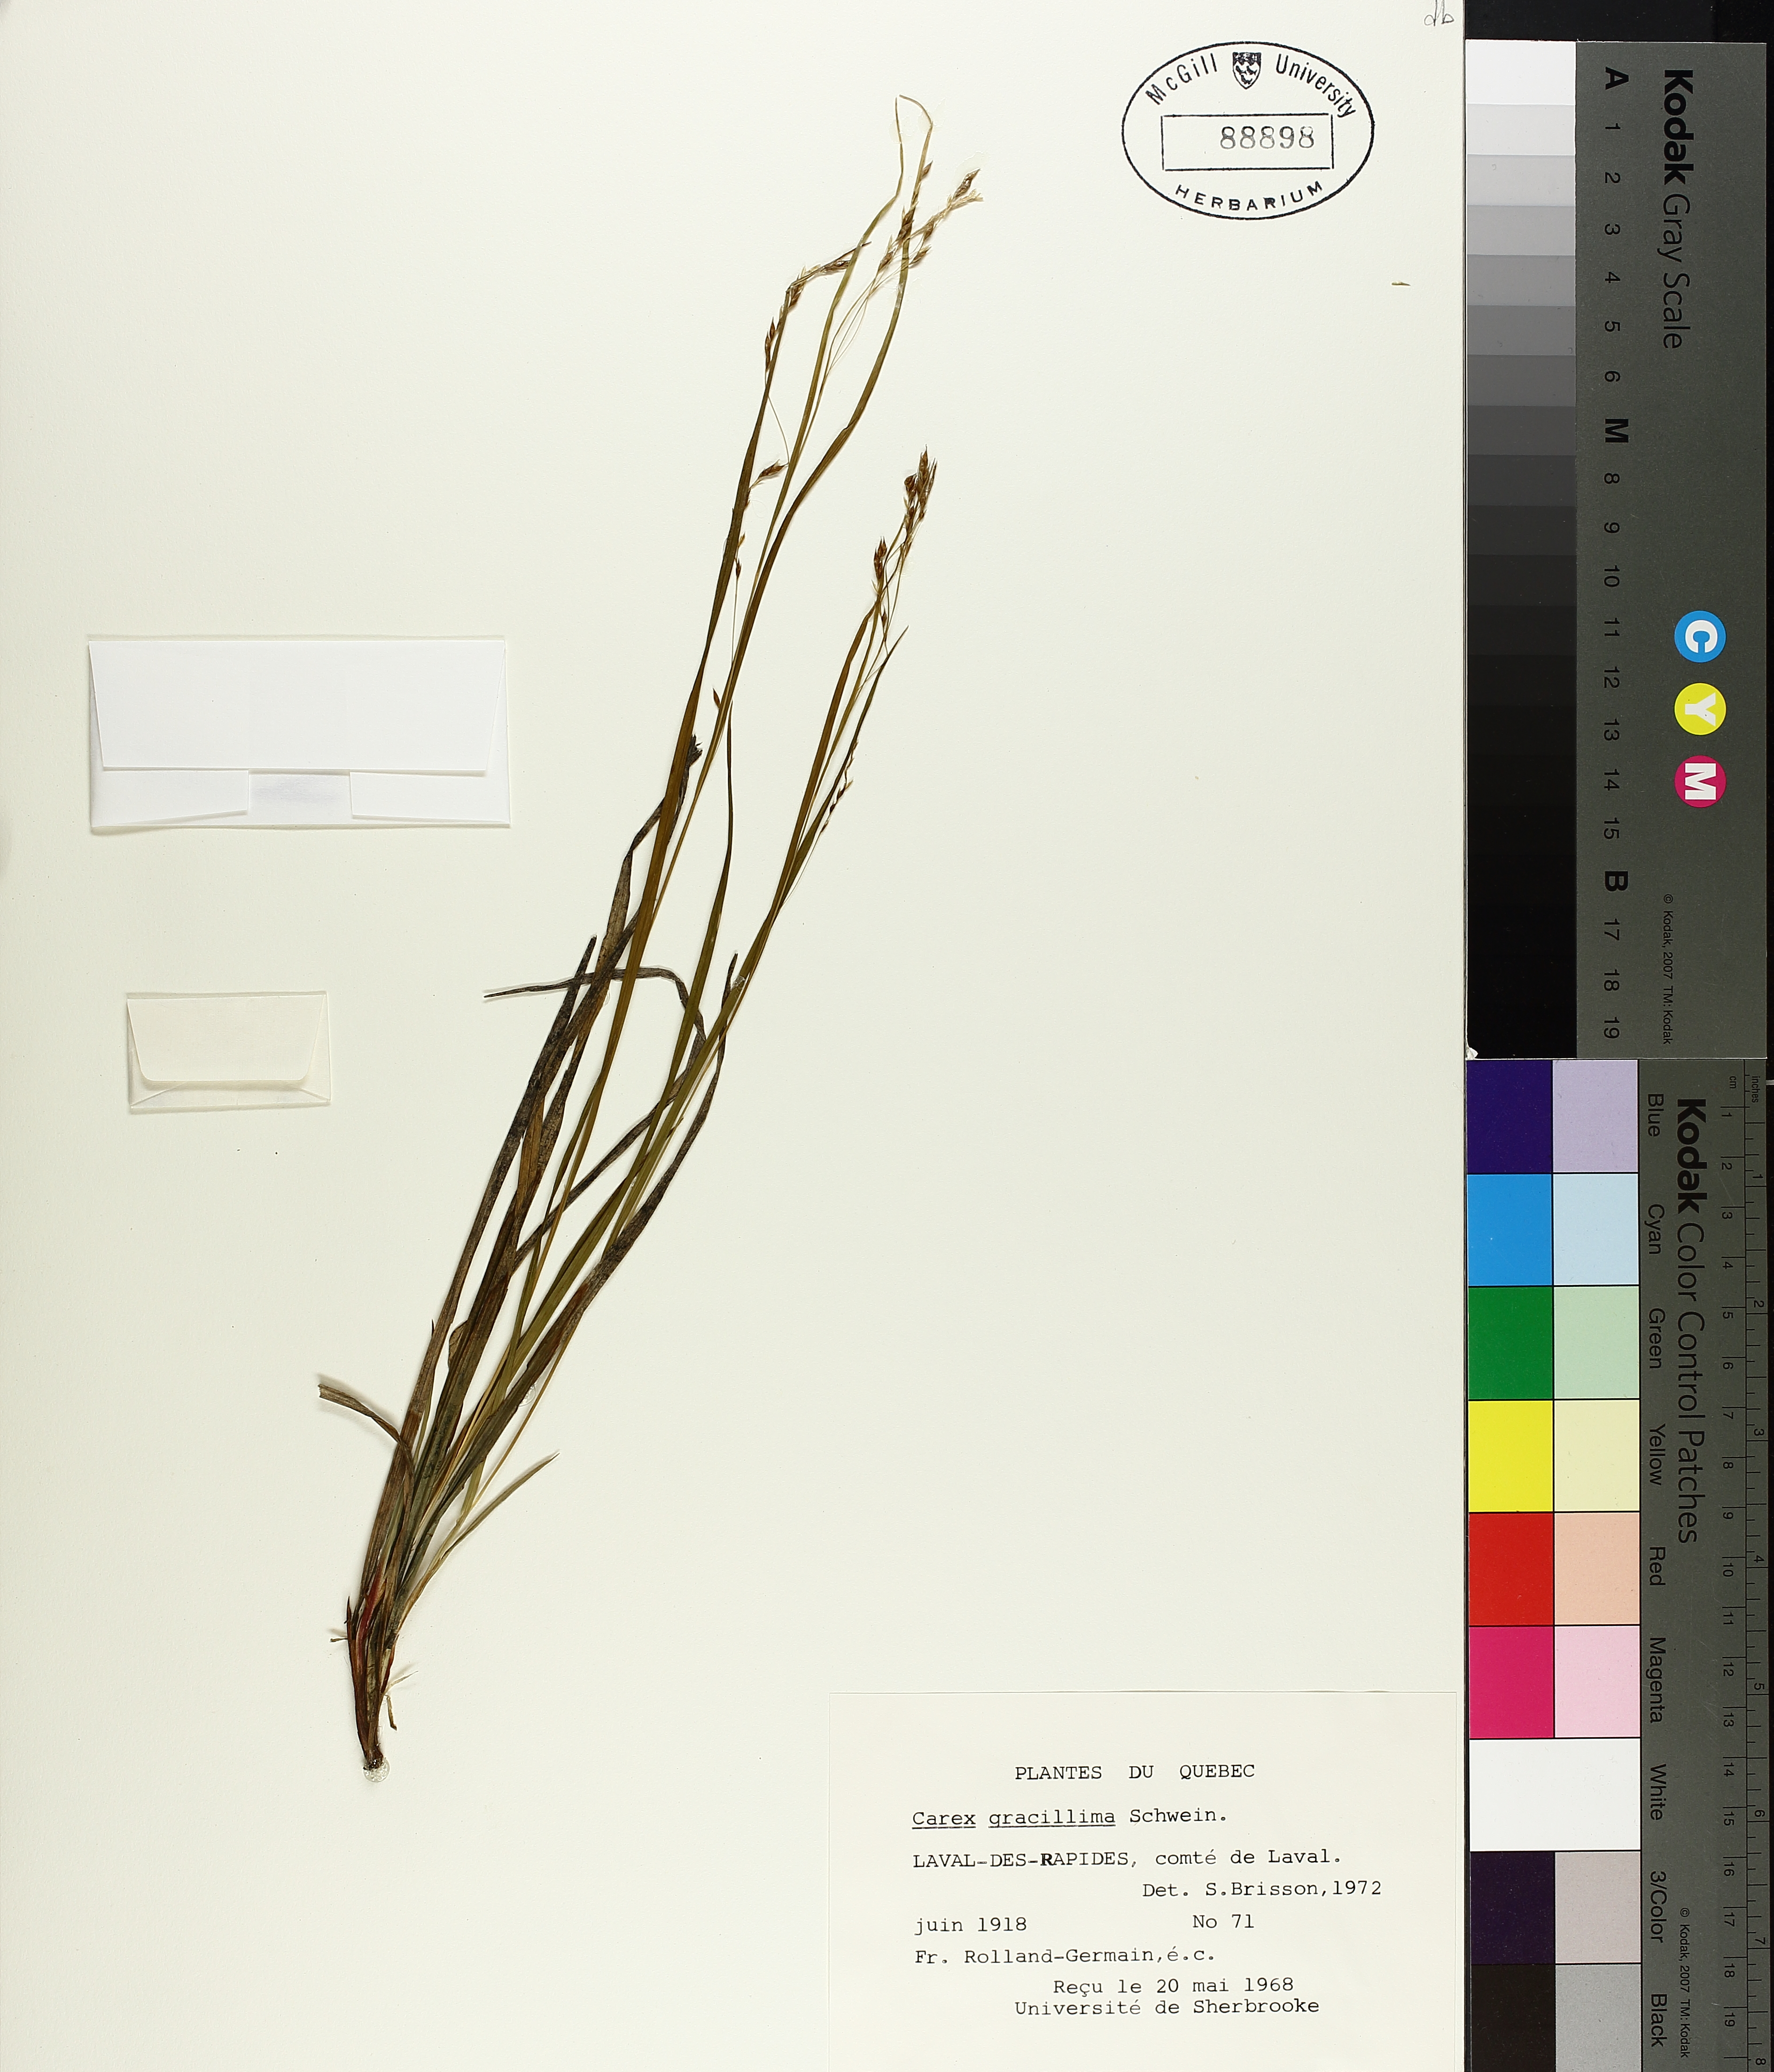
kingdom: Plantae
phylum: Tracheophyta
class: Liliopsida
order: Poales
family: Cyperaceae
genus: Carex
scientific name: Carex debilis
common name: White-edge sedge
